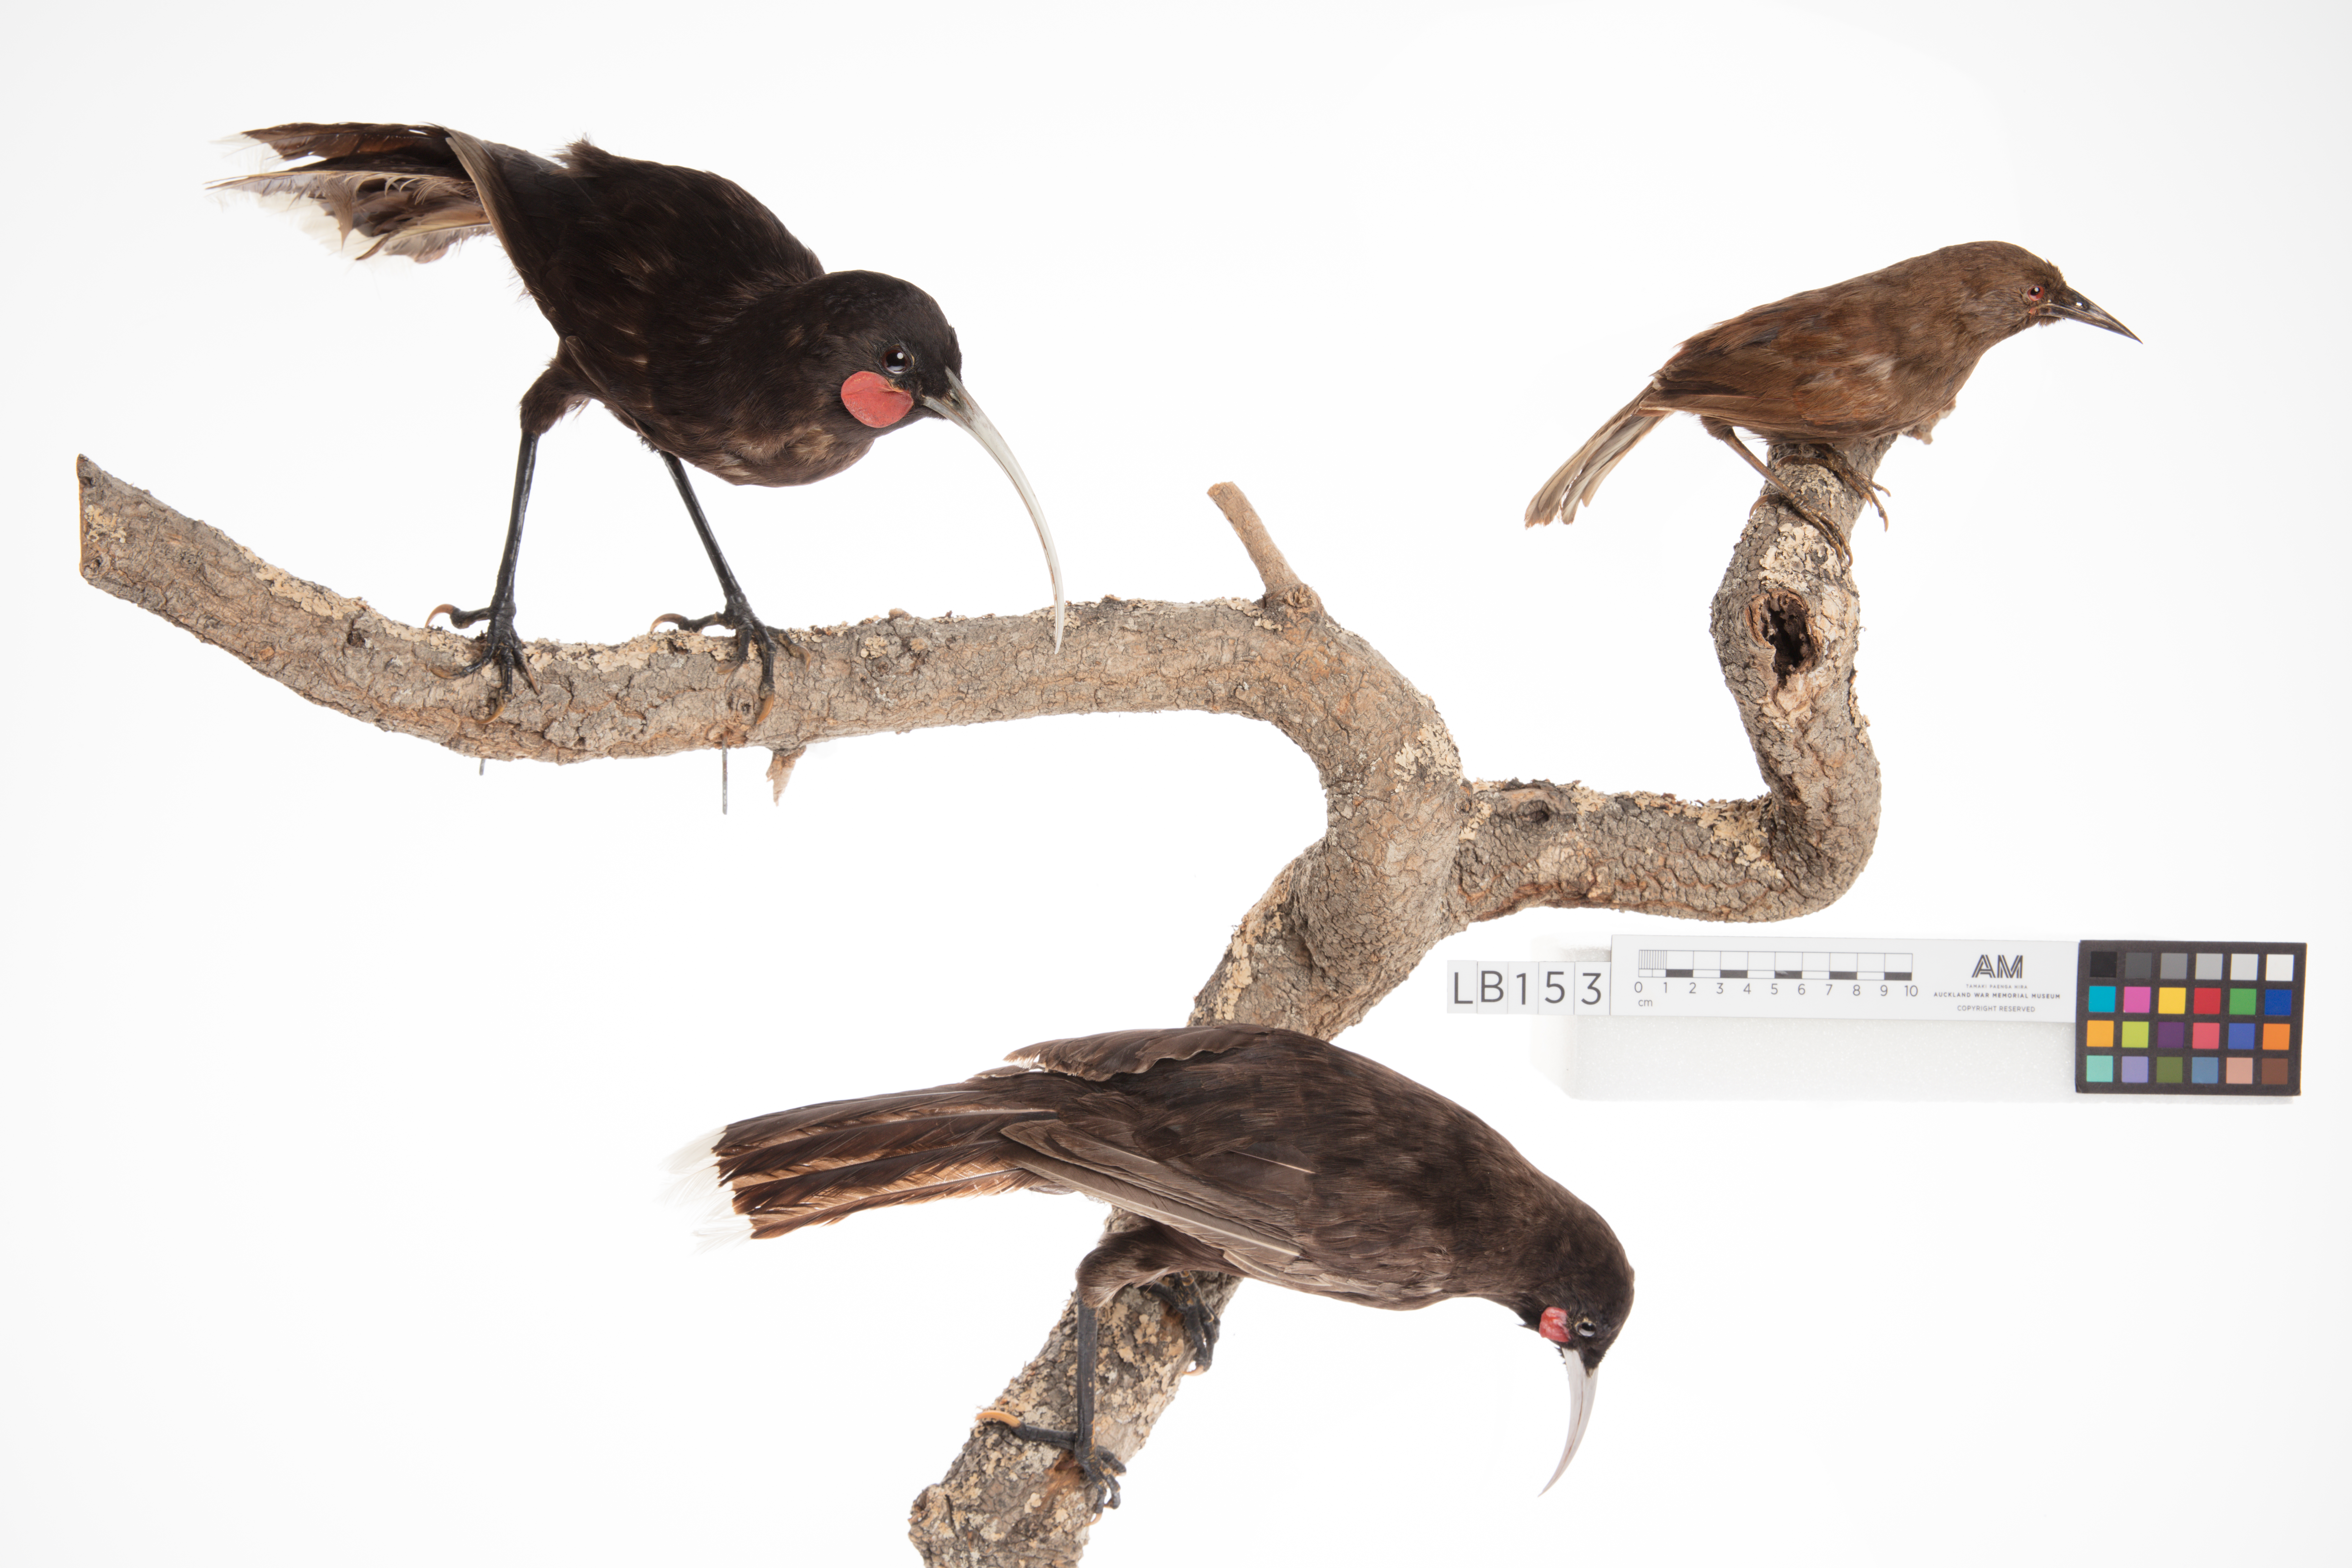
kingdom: Animalia
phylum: Chordata
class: Aves
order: Passeriformes
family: Callaeatidae
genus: Philesturnus
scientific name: Philesturnus carunculatus
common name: South island saddleback
